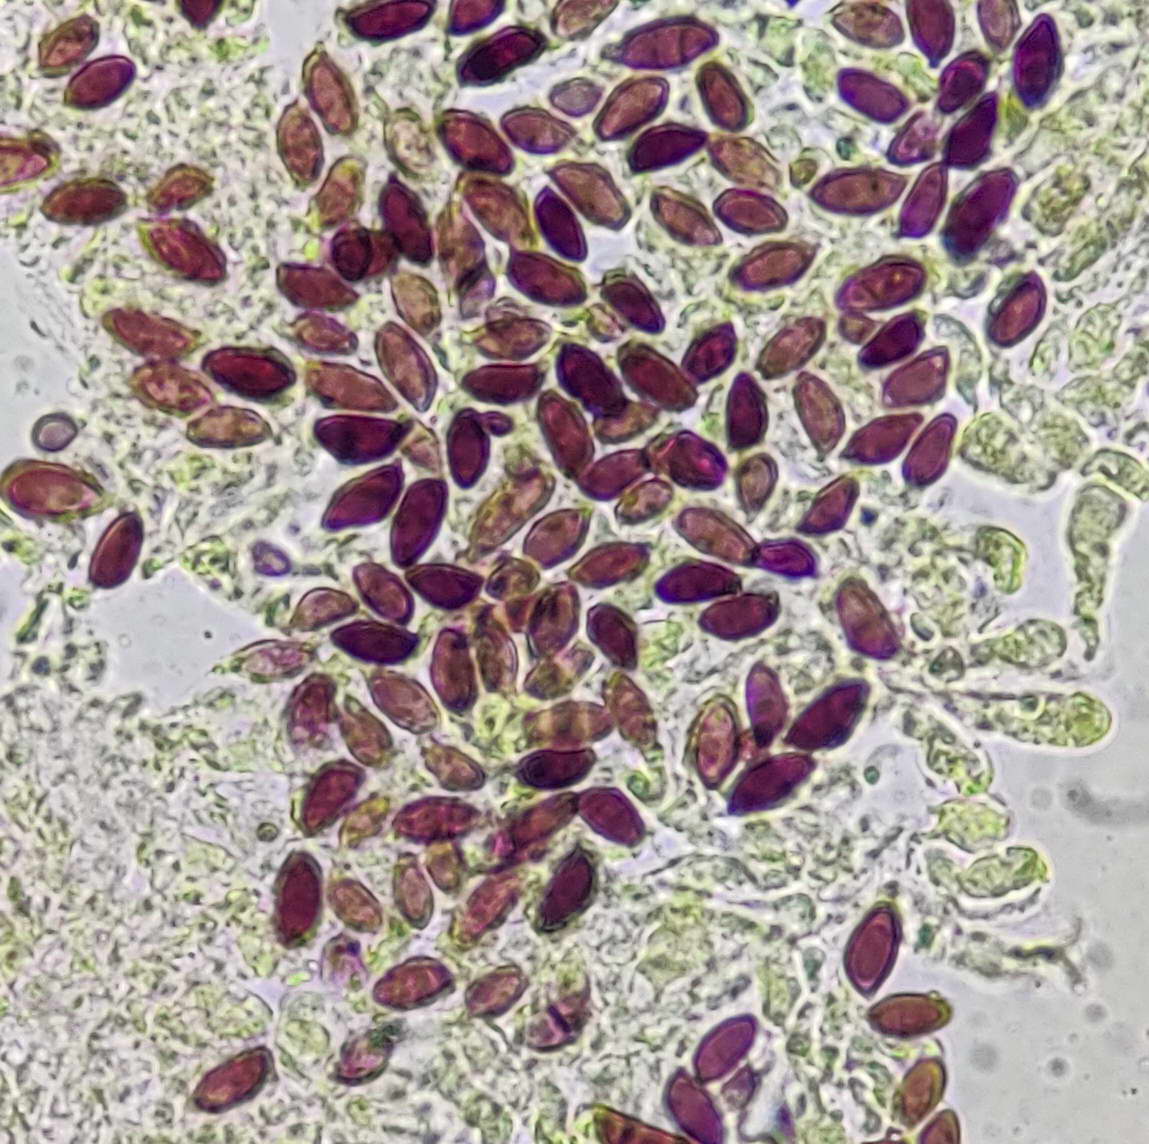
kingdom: Fungi
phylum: Basidiomycota
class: Agaricomycetes
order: Agaricales
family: Agaricaceae
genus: Leucoagaricus
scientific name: Leucoagaricus
